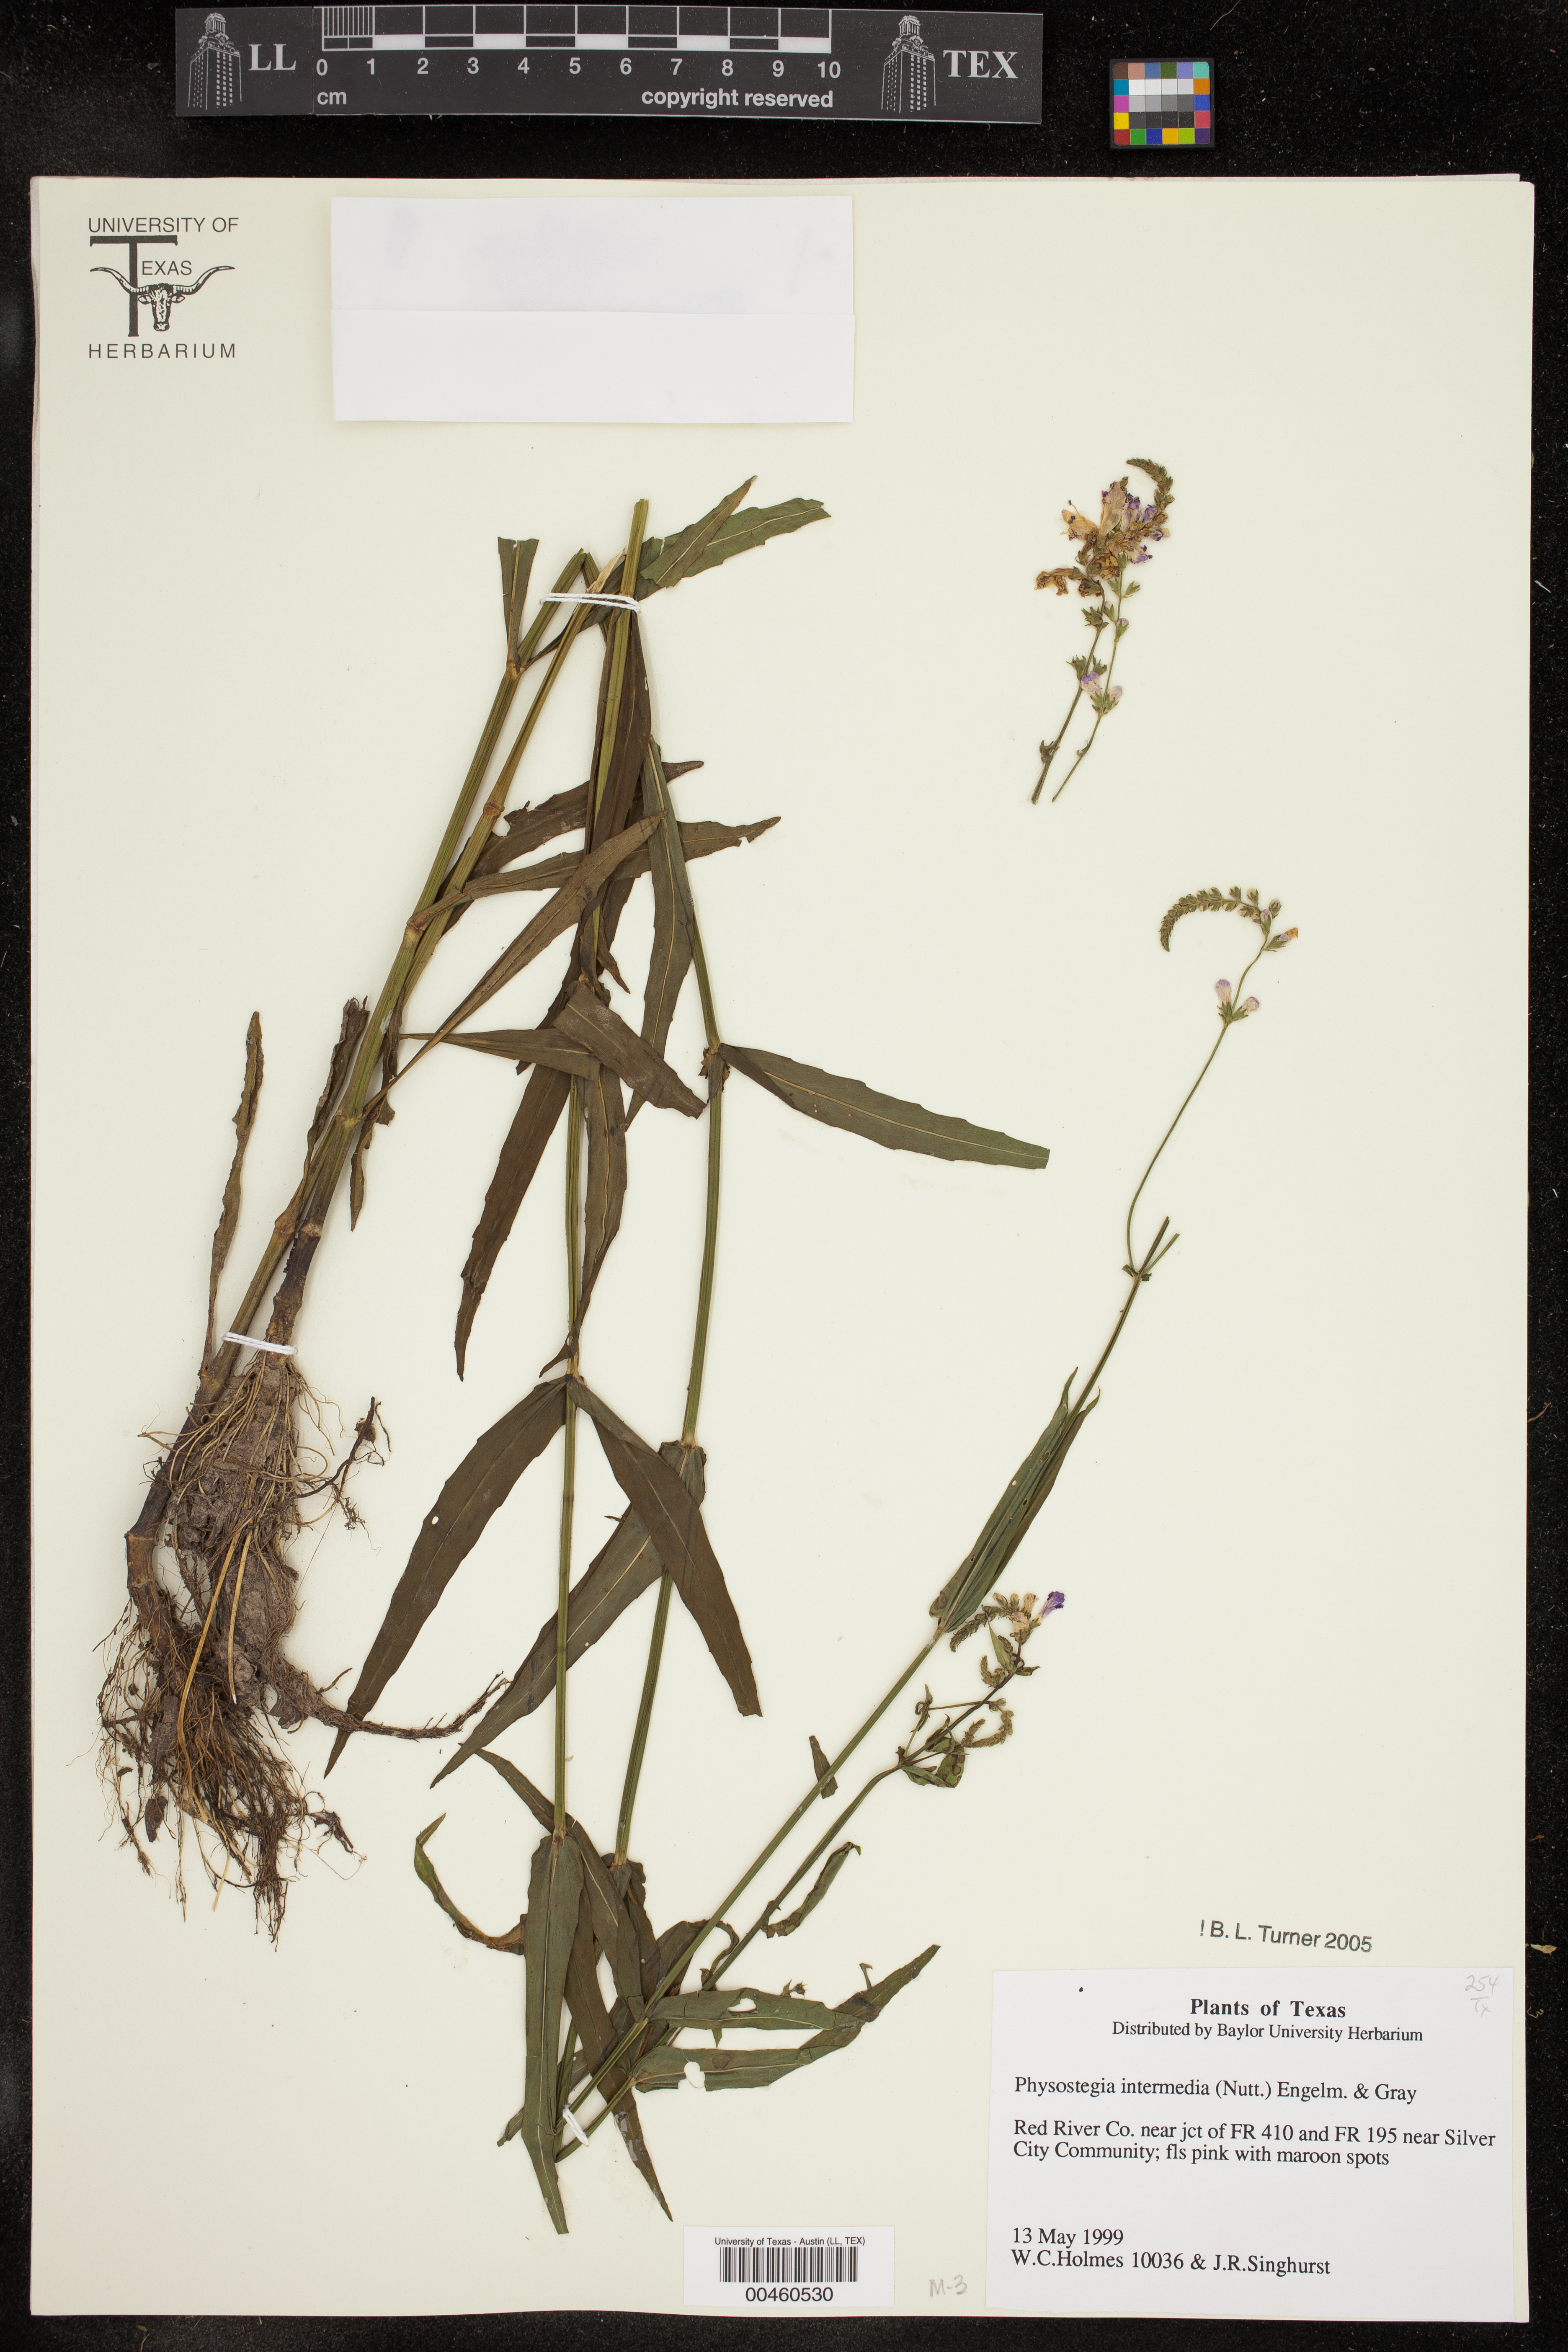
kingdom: Plantae
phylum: Tracheophyta
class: Magnoliopsida
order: Lamiales
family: Lamiaceae
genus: Physostegia
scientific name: Physostegia intermedia
